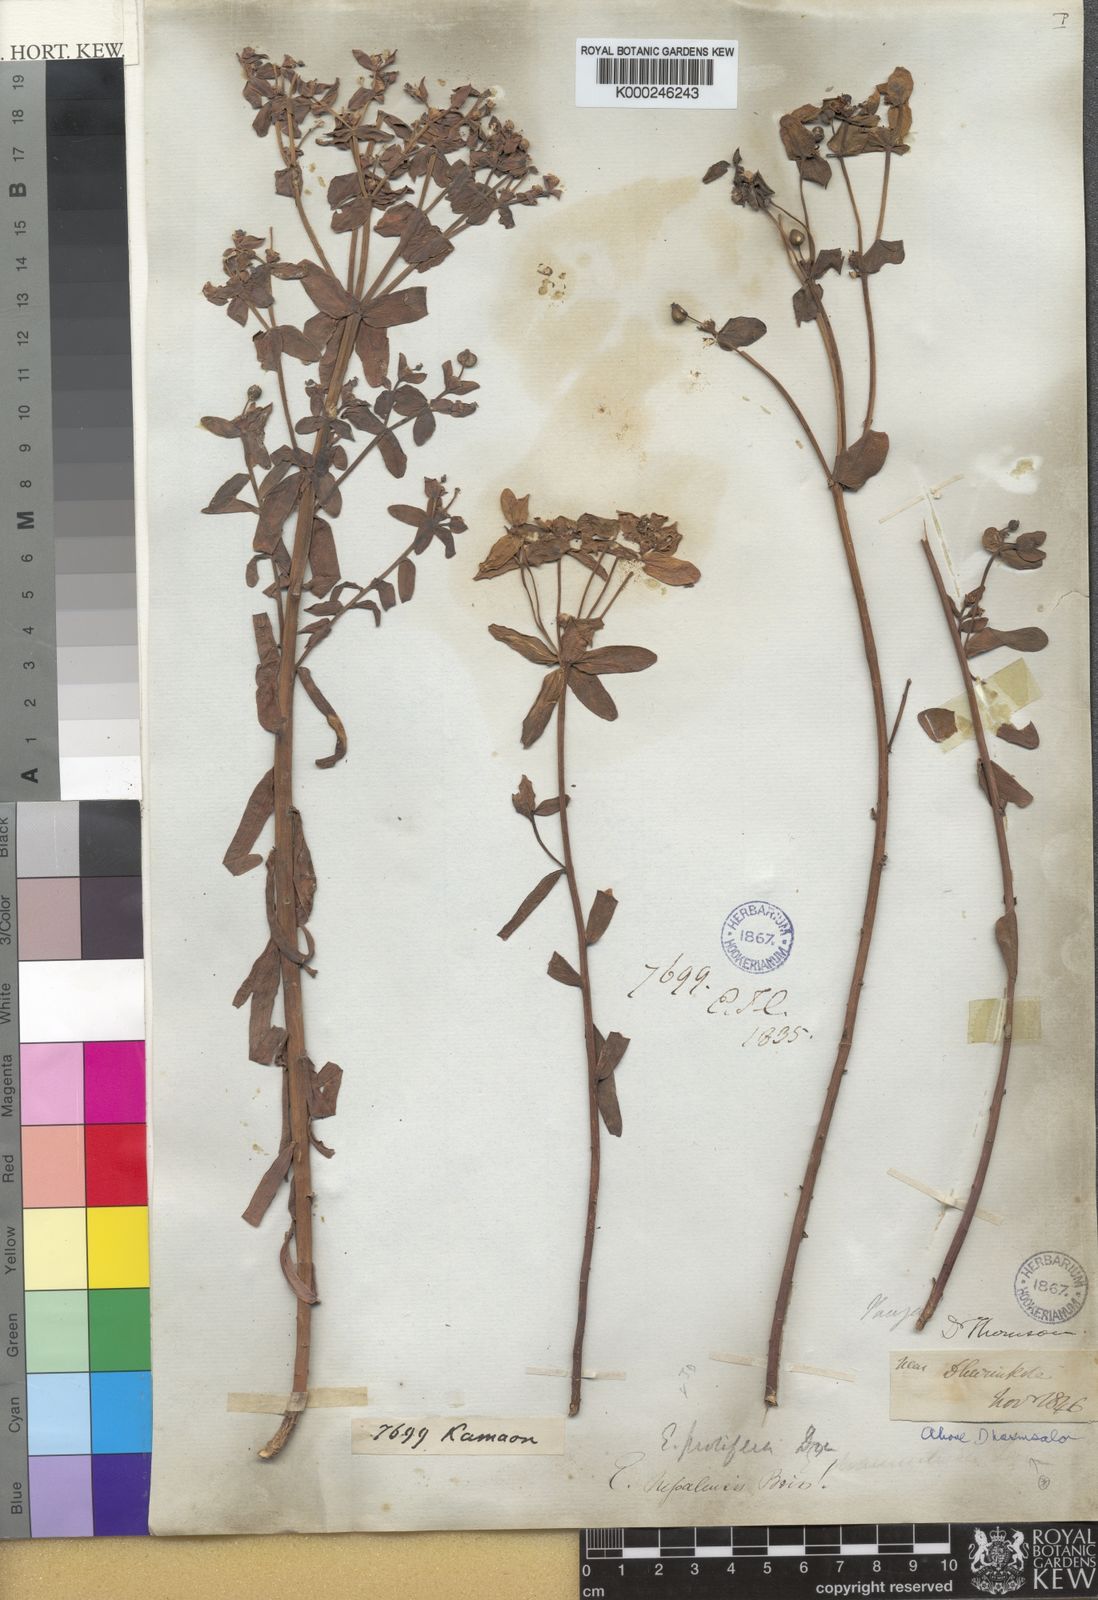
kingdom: Plantae
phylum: Tracheophyta
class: Magnoliopsida
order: Malpighiales
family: Euphorbiaceae
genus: Euphorbia
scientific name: Euphorbia obovata
